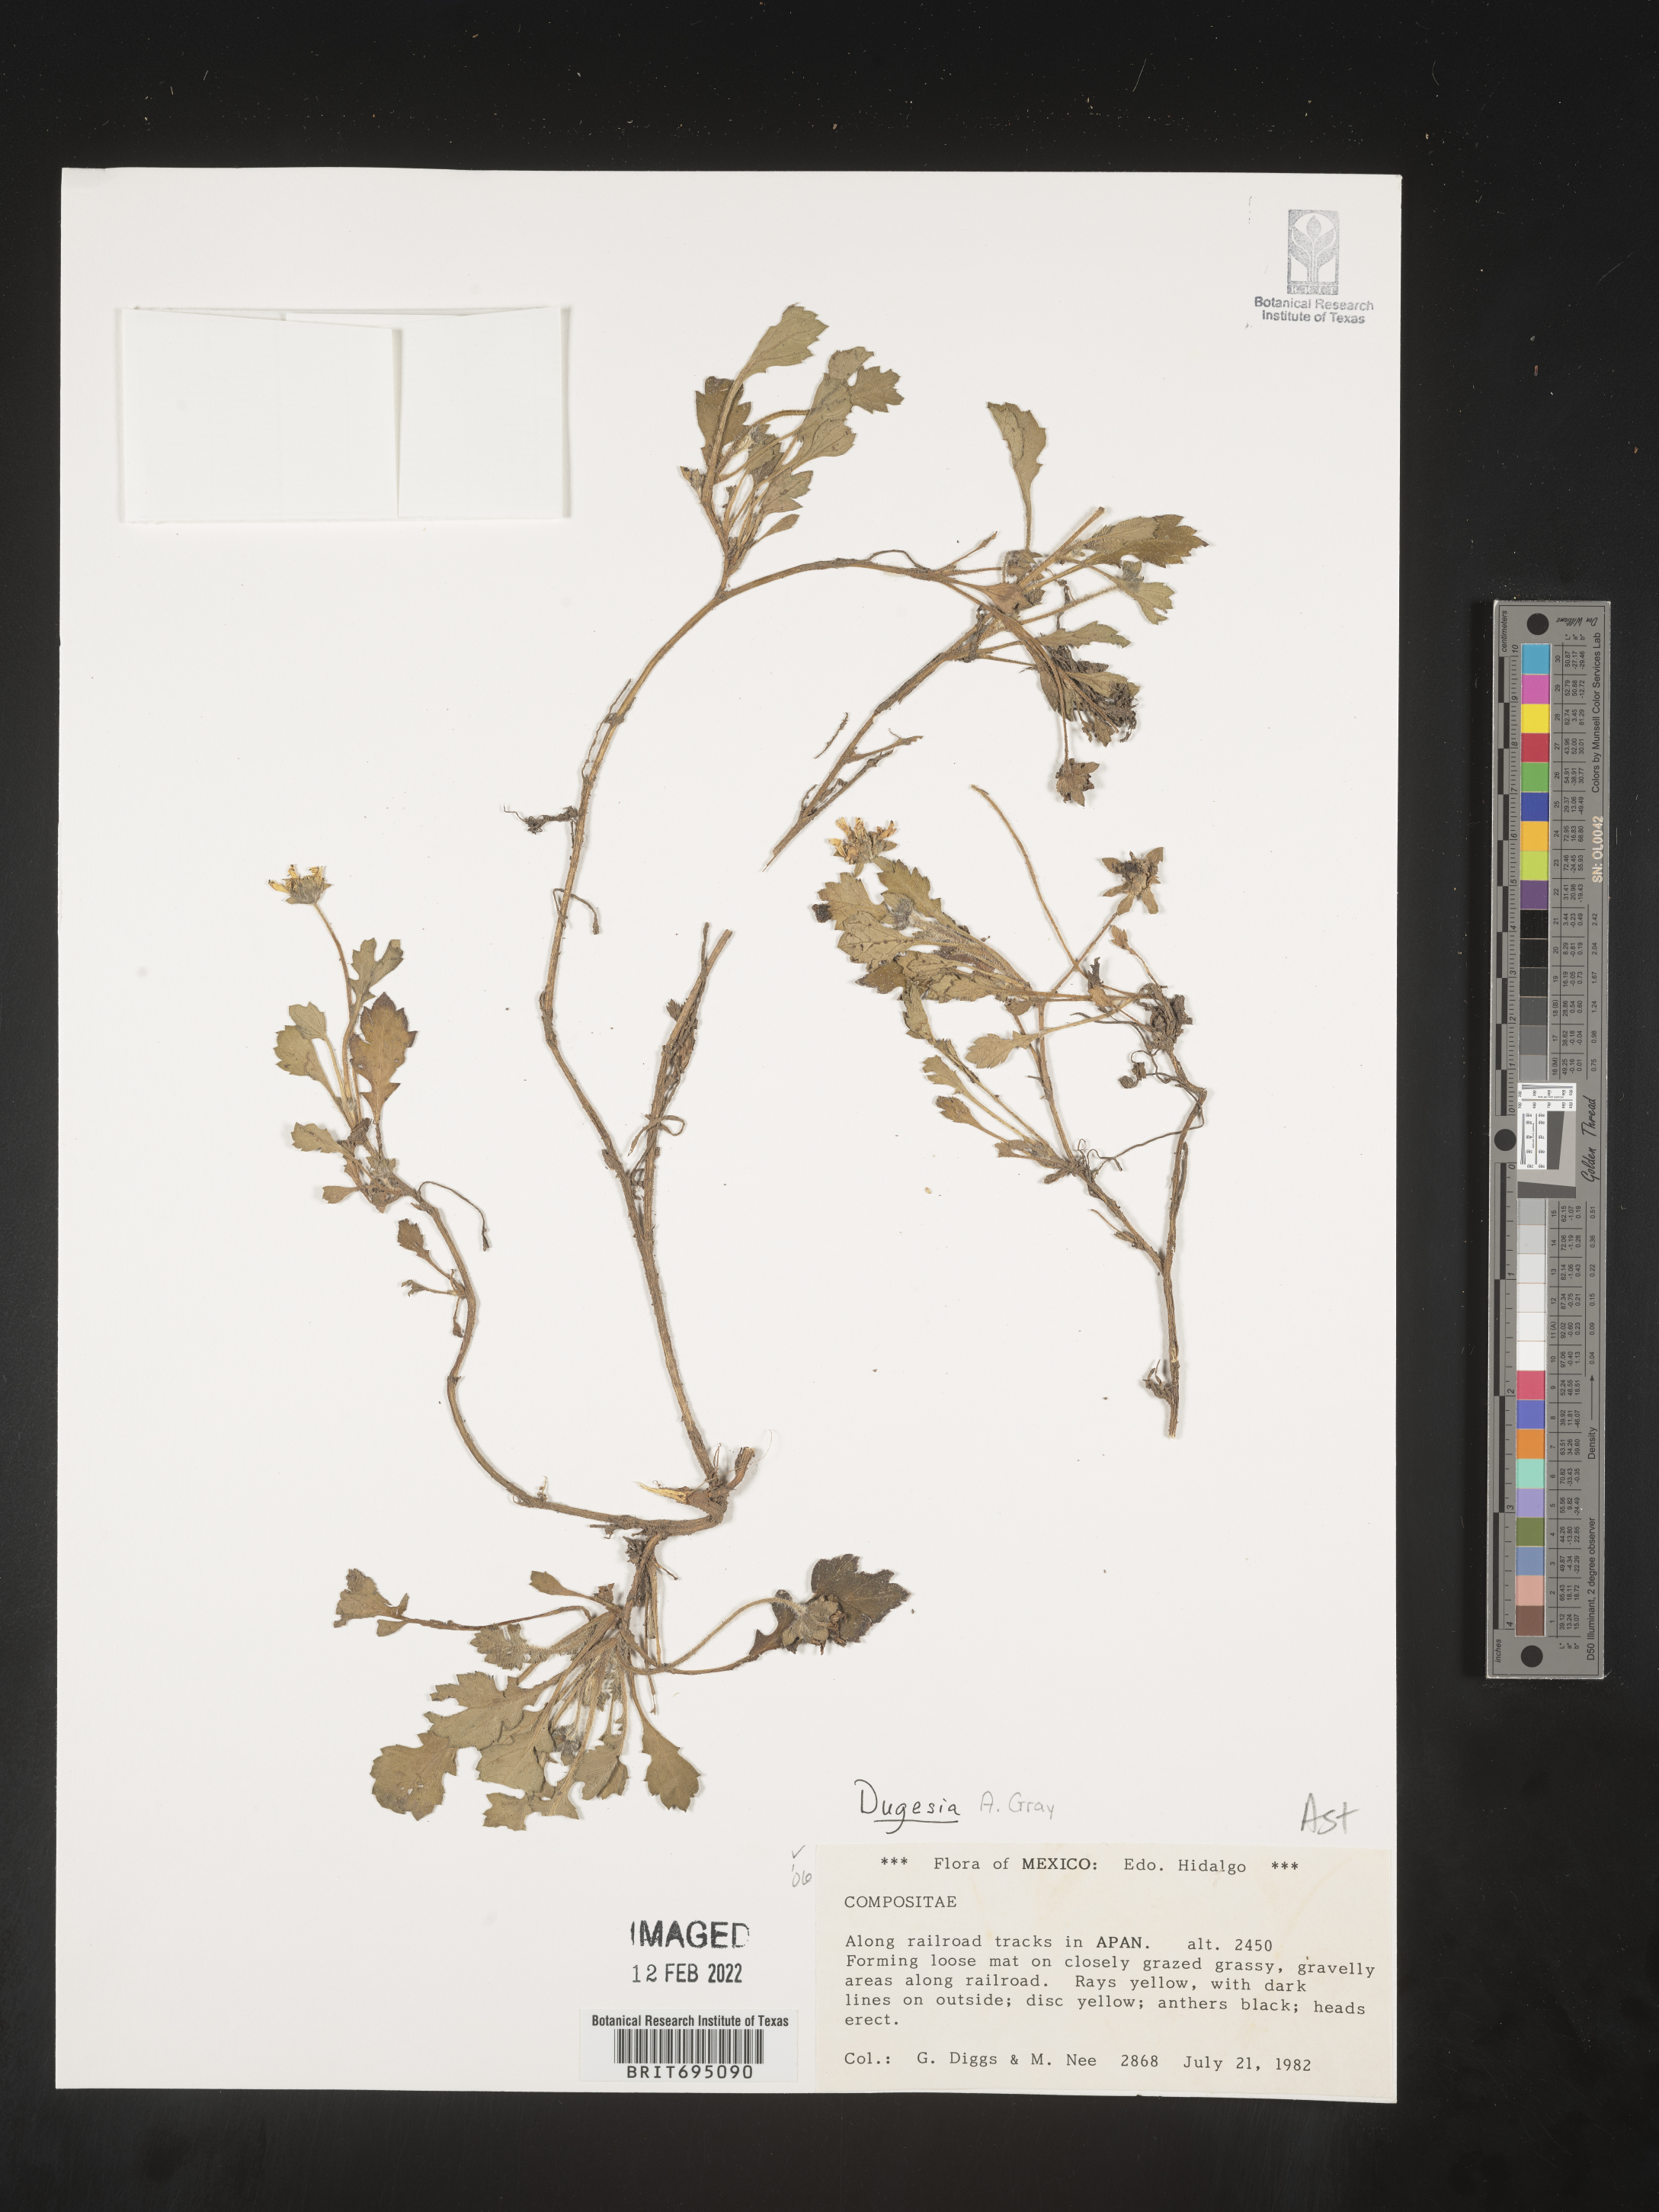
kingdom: Plantae
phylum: Tracheophyta
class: Magnoliopsida
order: Asterales
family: Asteraceae
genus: Dugesia
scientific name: Dugesia
